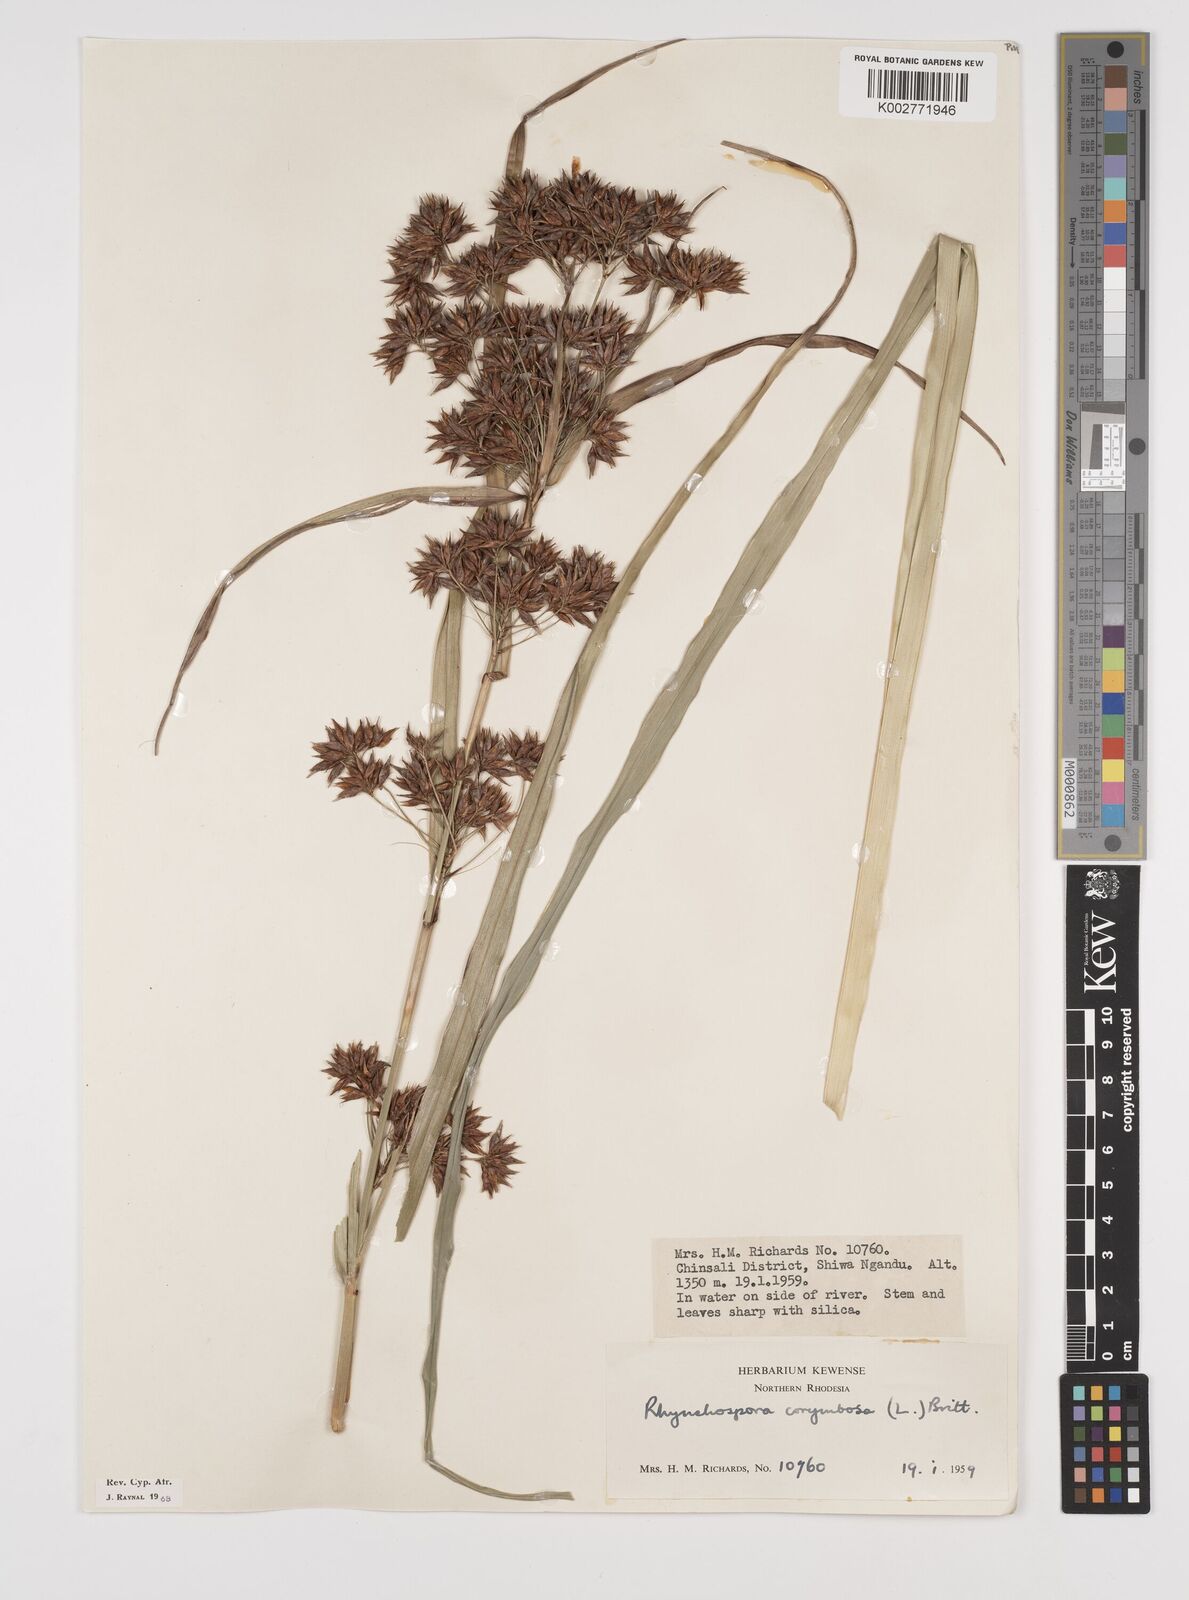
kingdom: Plantae
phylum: Tracheophyta
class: Liliopsida
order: Poales
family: Cyperaceae
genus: Rhynchospora
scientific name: Rhynchospora corymbosa
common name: Golden beak sedge
